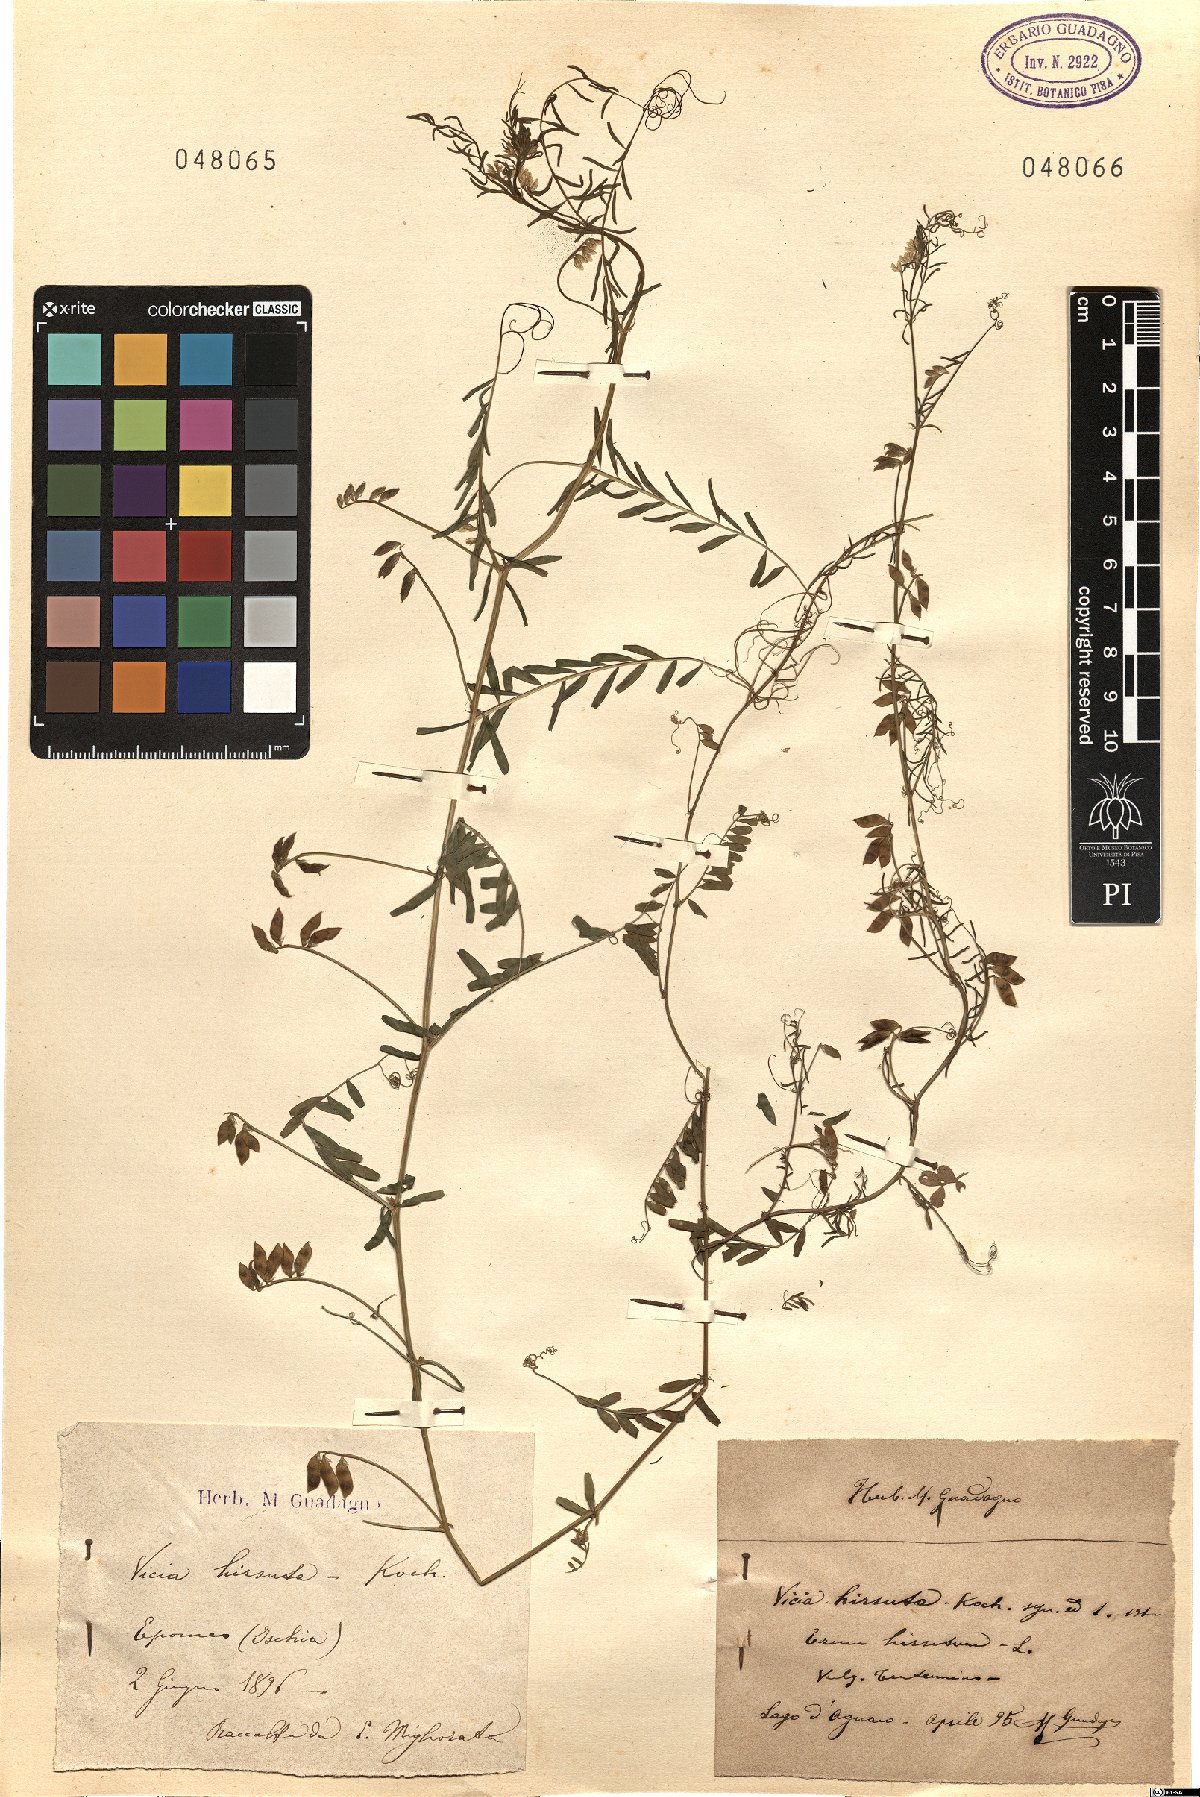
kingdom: Plantae
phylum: Tracheophyta
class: Magnoliopsida
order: Fabales
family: Fabaceae
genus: Vicia
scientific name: Vicia hirsuta
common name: Tiny vetch
